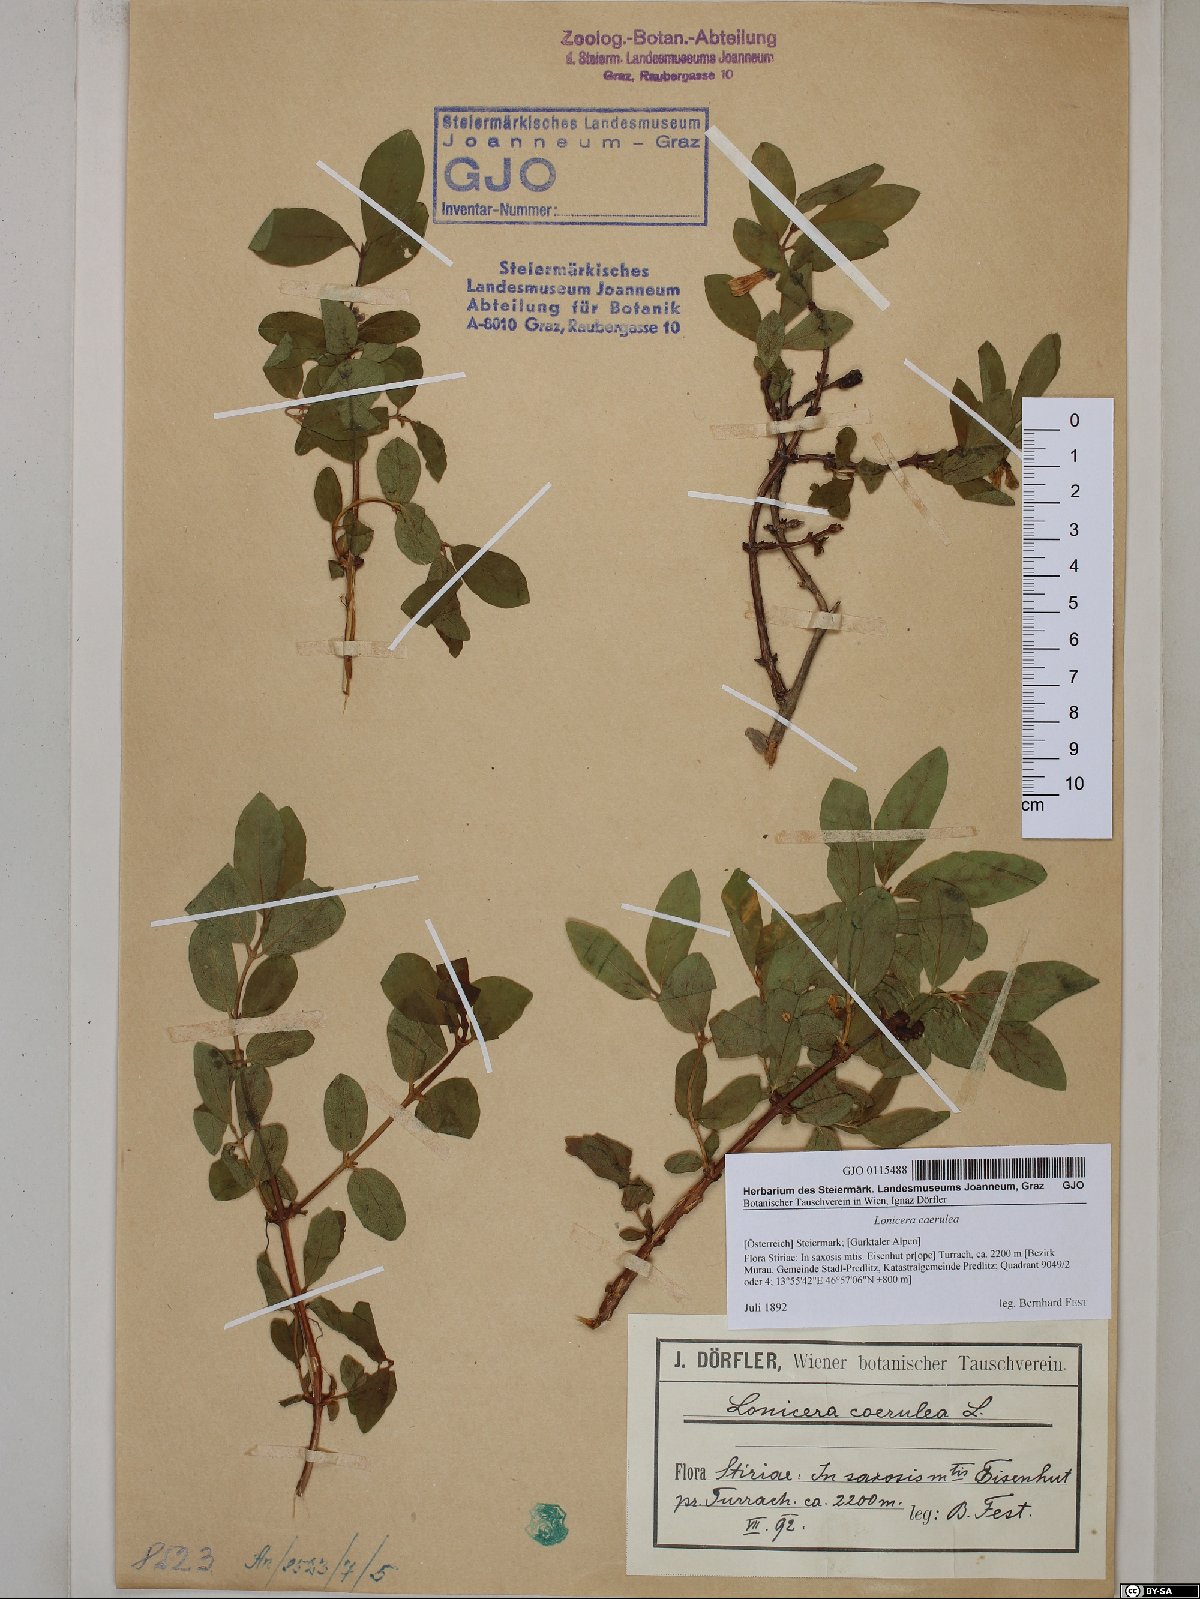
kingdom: Plantae
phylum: Tracheophyta
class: Magnoliopsida
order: Dipsacales
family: Caprifoliaceae
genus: Lonicera
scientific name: Lonicera caerulea
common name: Blue honeysuckle
